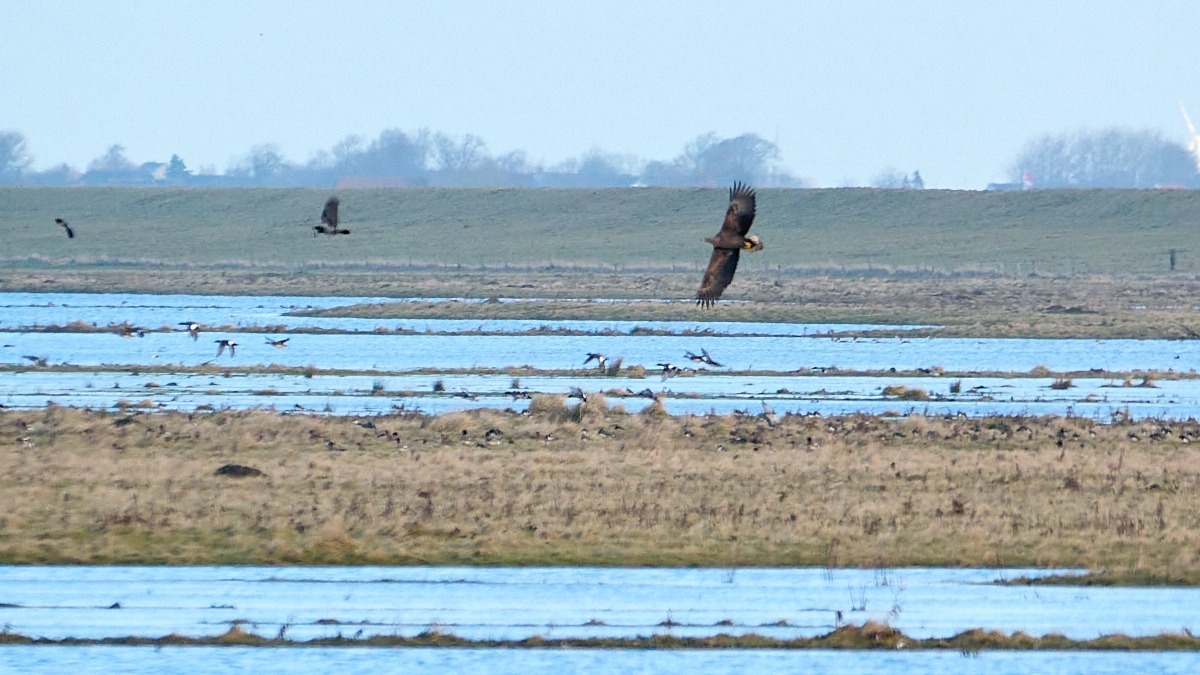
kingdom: Animalia
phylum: Chordata
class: Aves
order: Accipitriformes
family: Accipitridae
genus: Haliaeetus
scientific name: Haliaeetus albicilla
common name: Havørn
